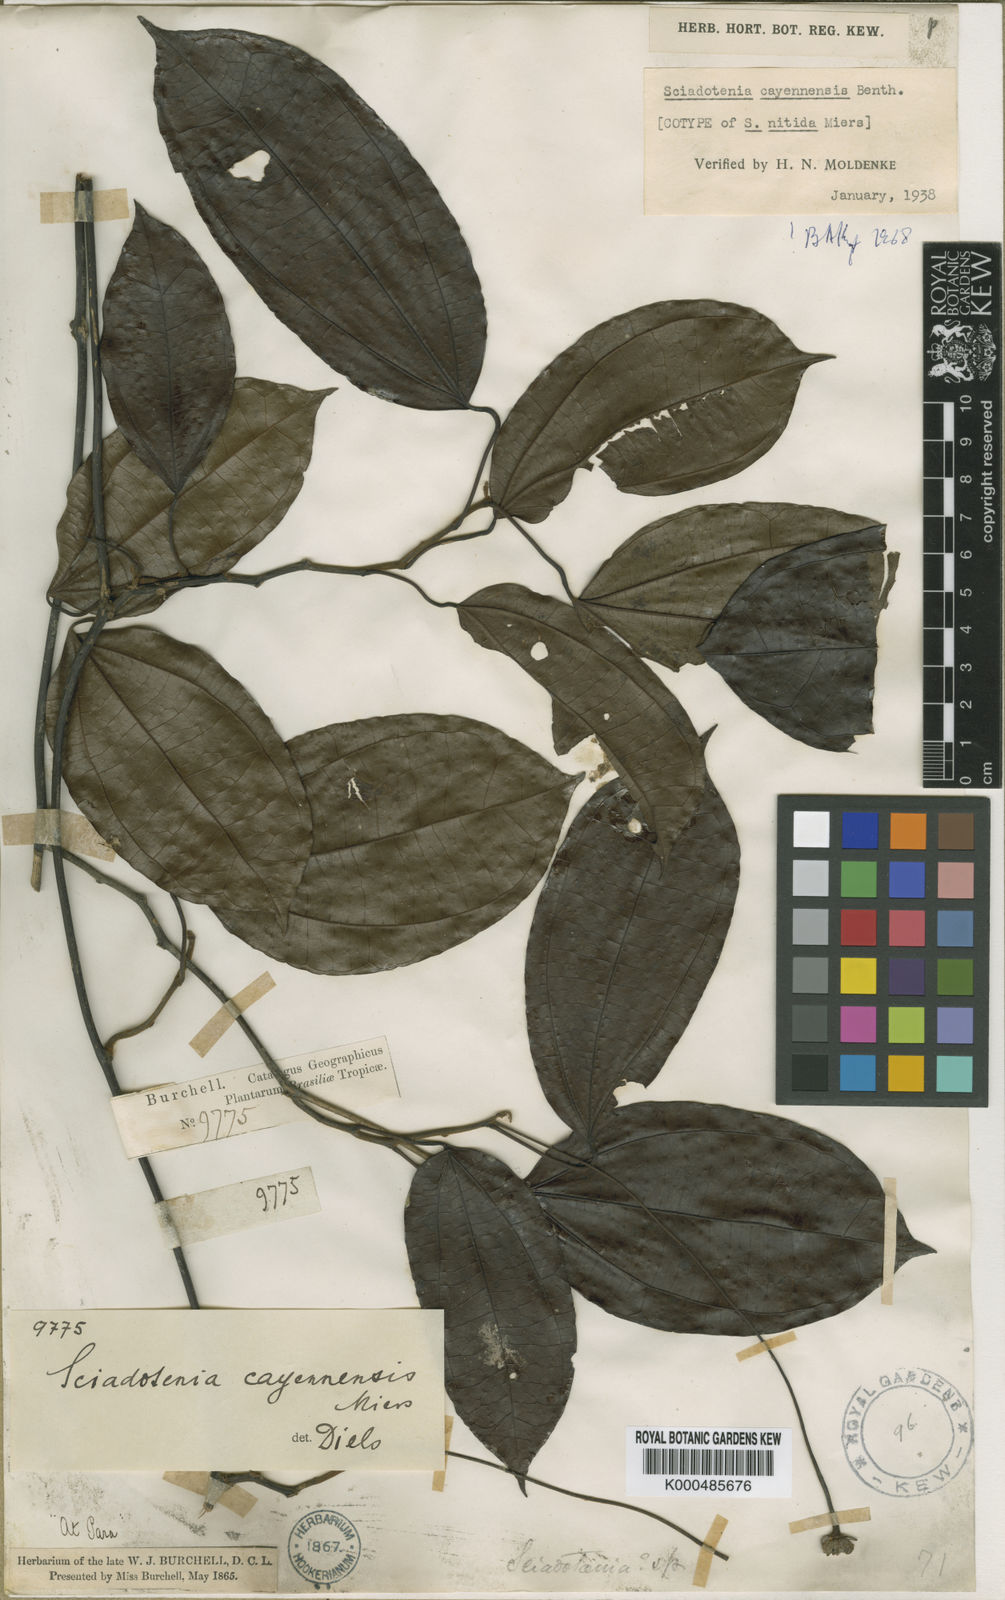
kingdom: Plantae
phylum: Tracheophyta
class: Magnoliopsida
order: Ranunculales
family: Menispermaceae
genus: Sciadotenia
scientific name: Sciadotenia cayennensis
